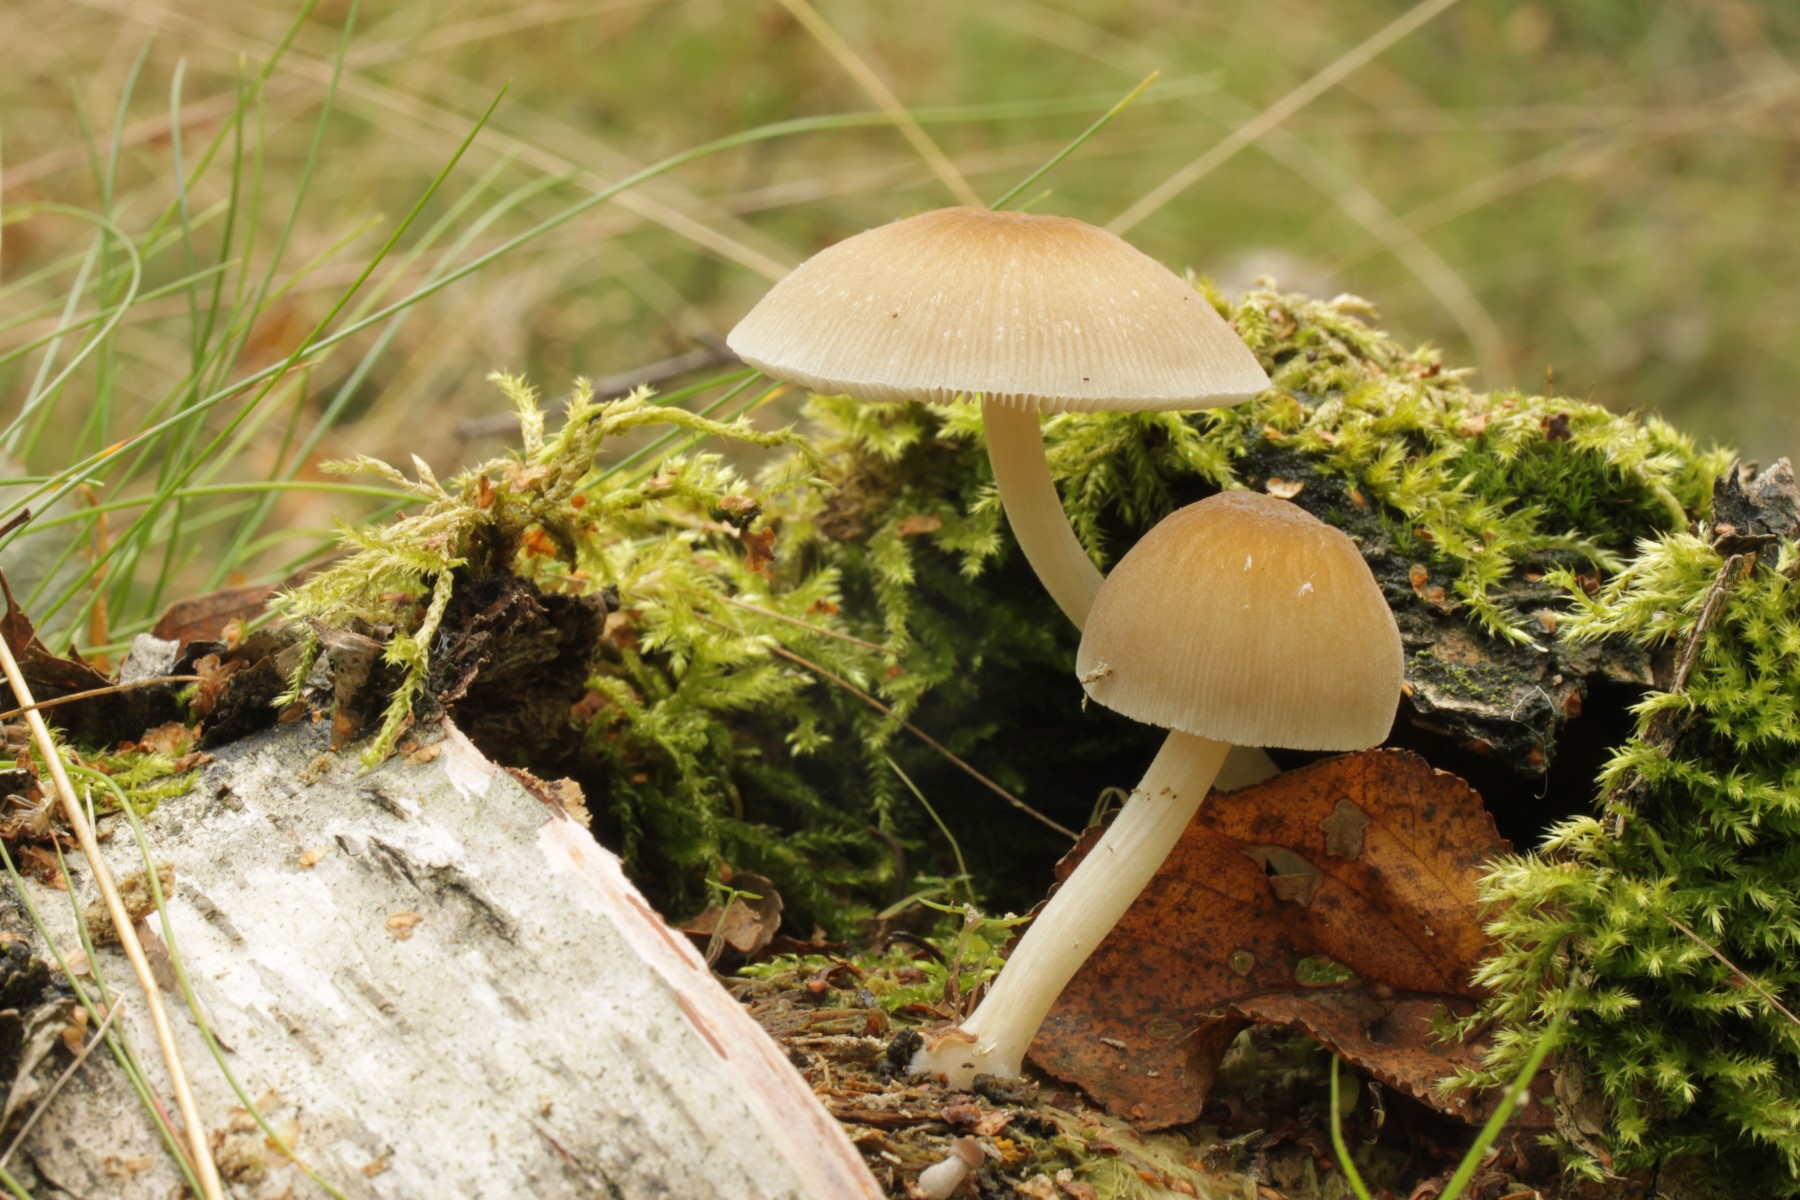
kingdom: Fungi
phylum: Basidiomycota
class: Agaricomycetes
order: Agaricales
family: Pluteaceae
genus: Pluteus
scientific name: Pluteus semibulbosus
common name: knoldet skærmhat
